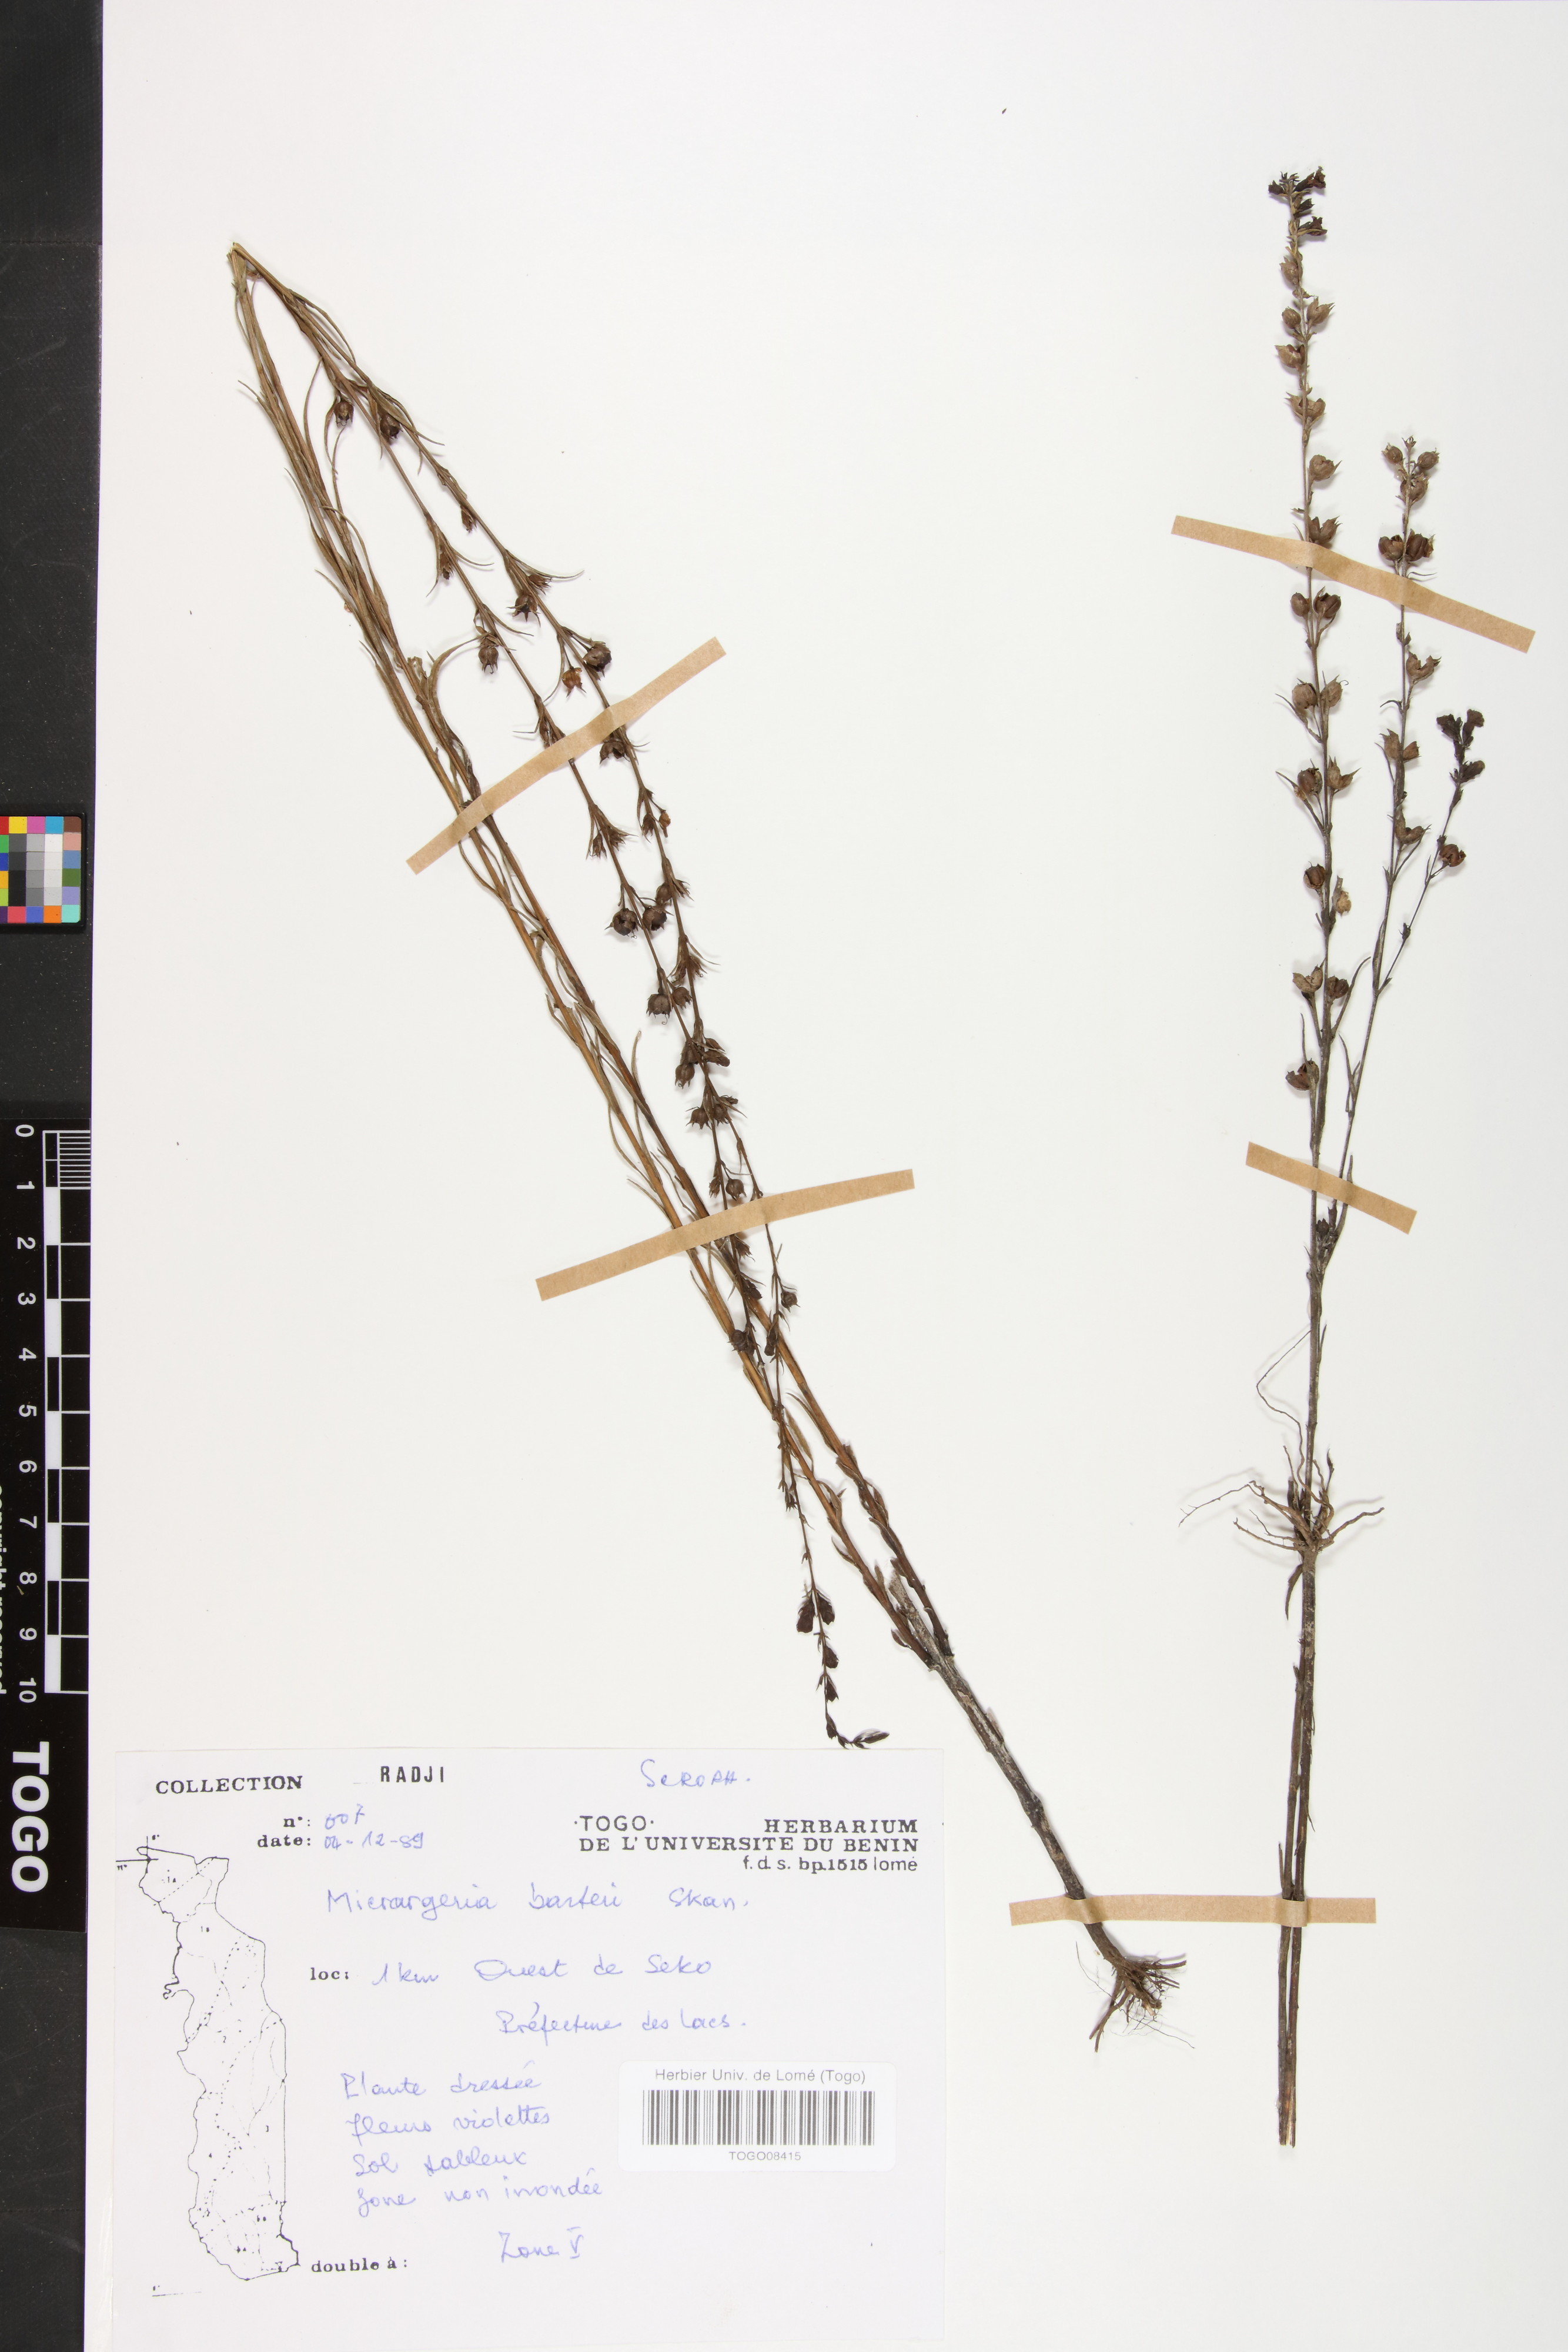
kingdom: Plantae
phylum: Tracheophyta
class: Magnoliopsida
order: Lamiales
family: Orobanchaceae
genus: Micrargeria
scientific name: Micrargeria filiformis
